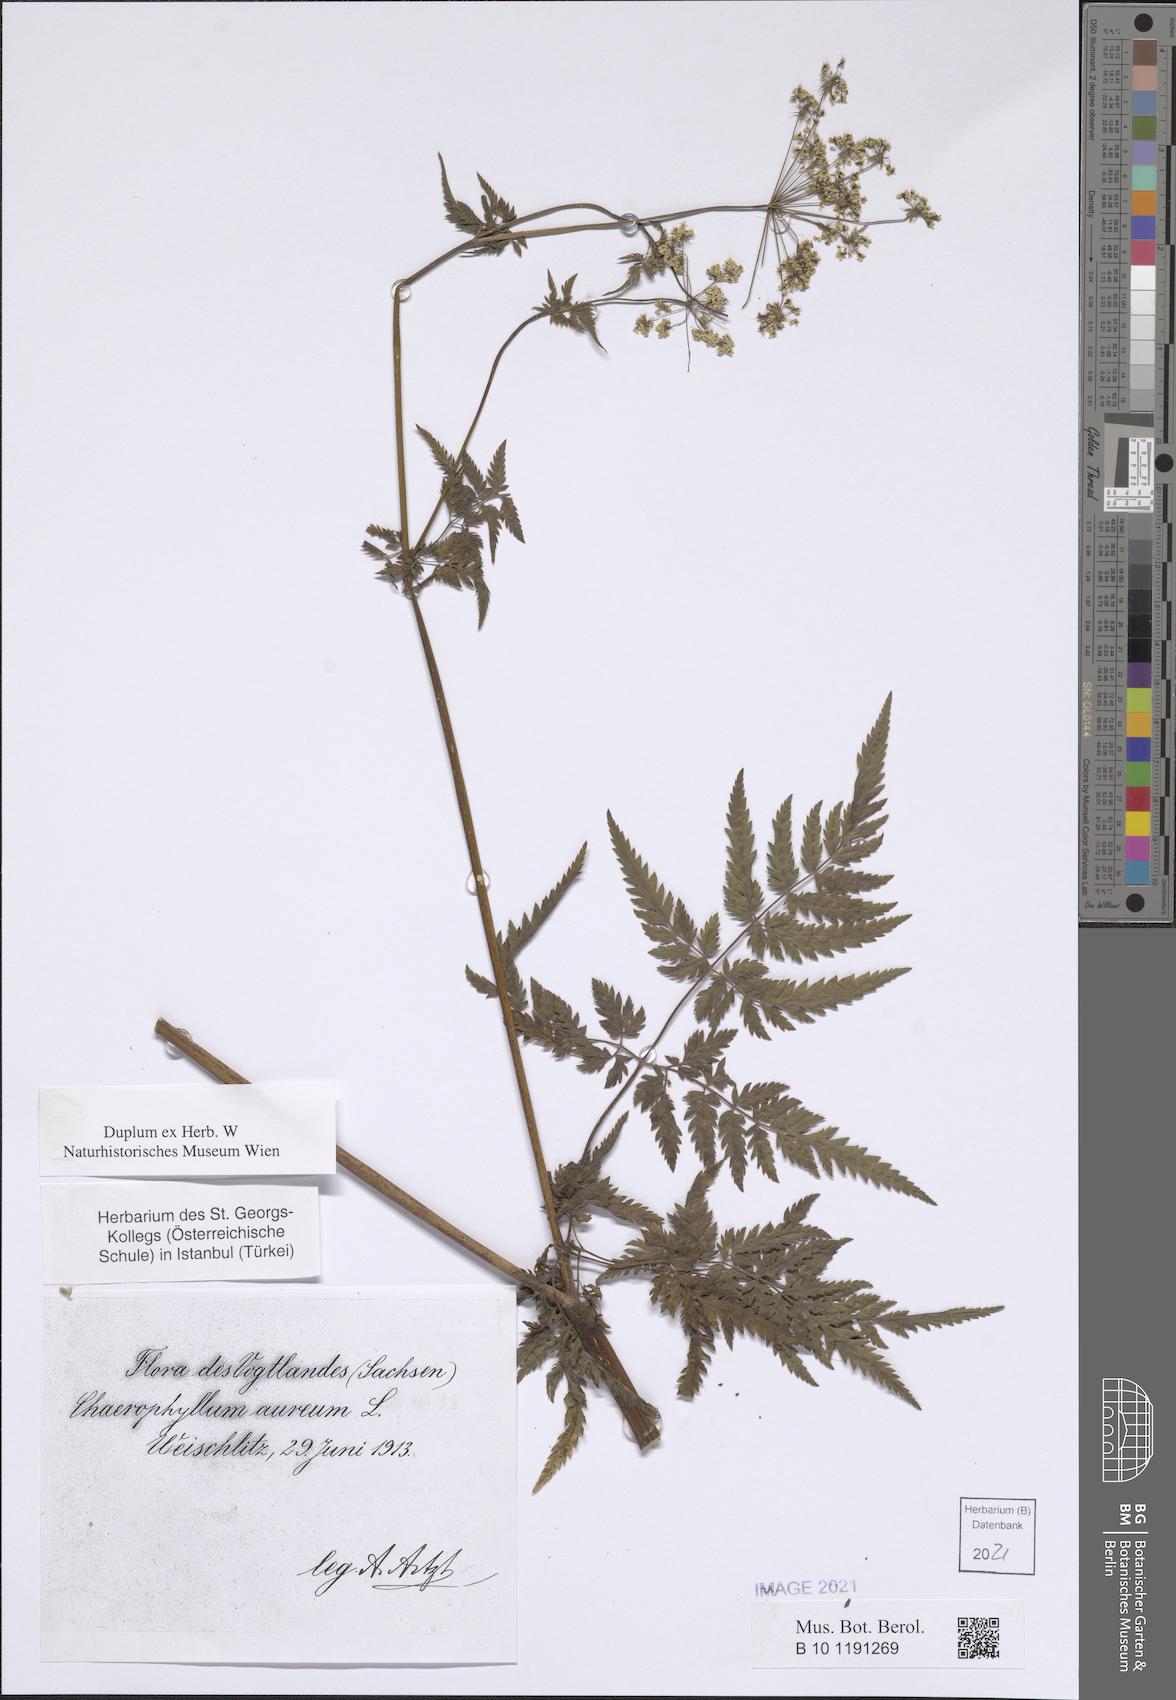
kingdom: Plantae
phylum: Tracheophyta
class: Magnoliopsida
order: Apiales
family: Apiaceae
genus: Chaerophyllum
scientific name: Chaerophyllum aureum
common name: Golden chervil
